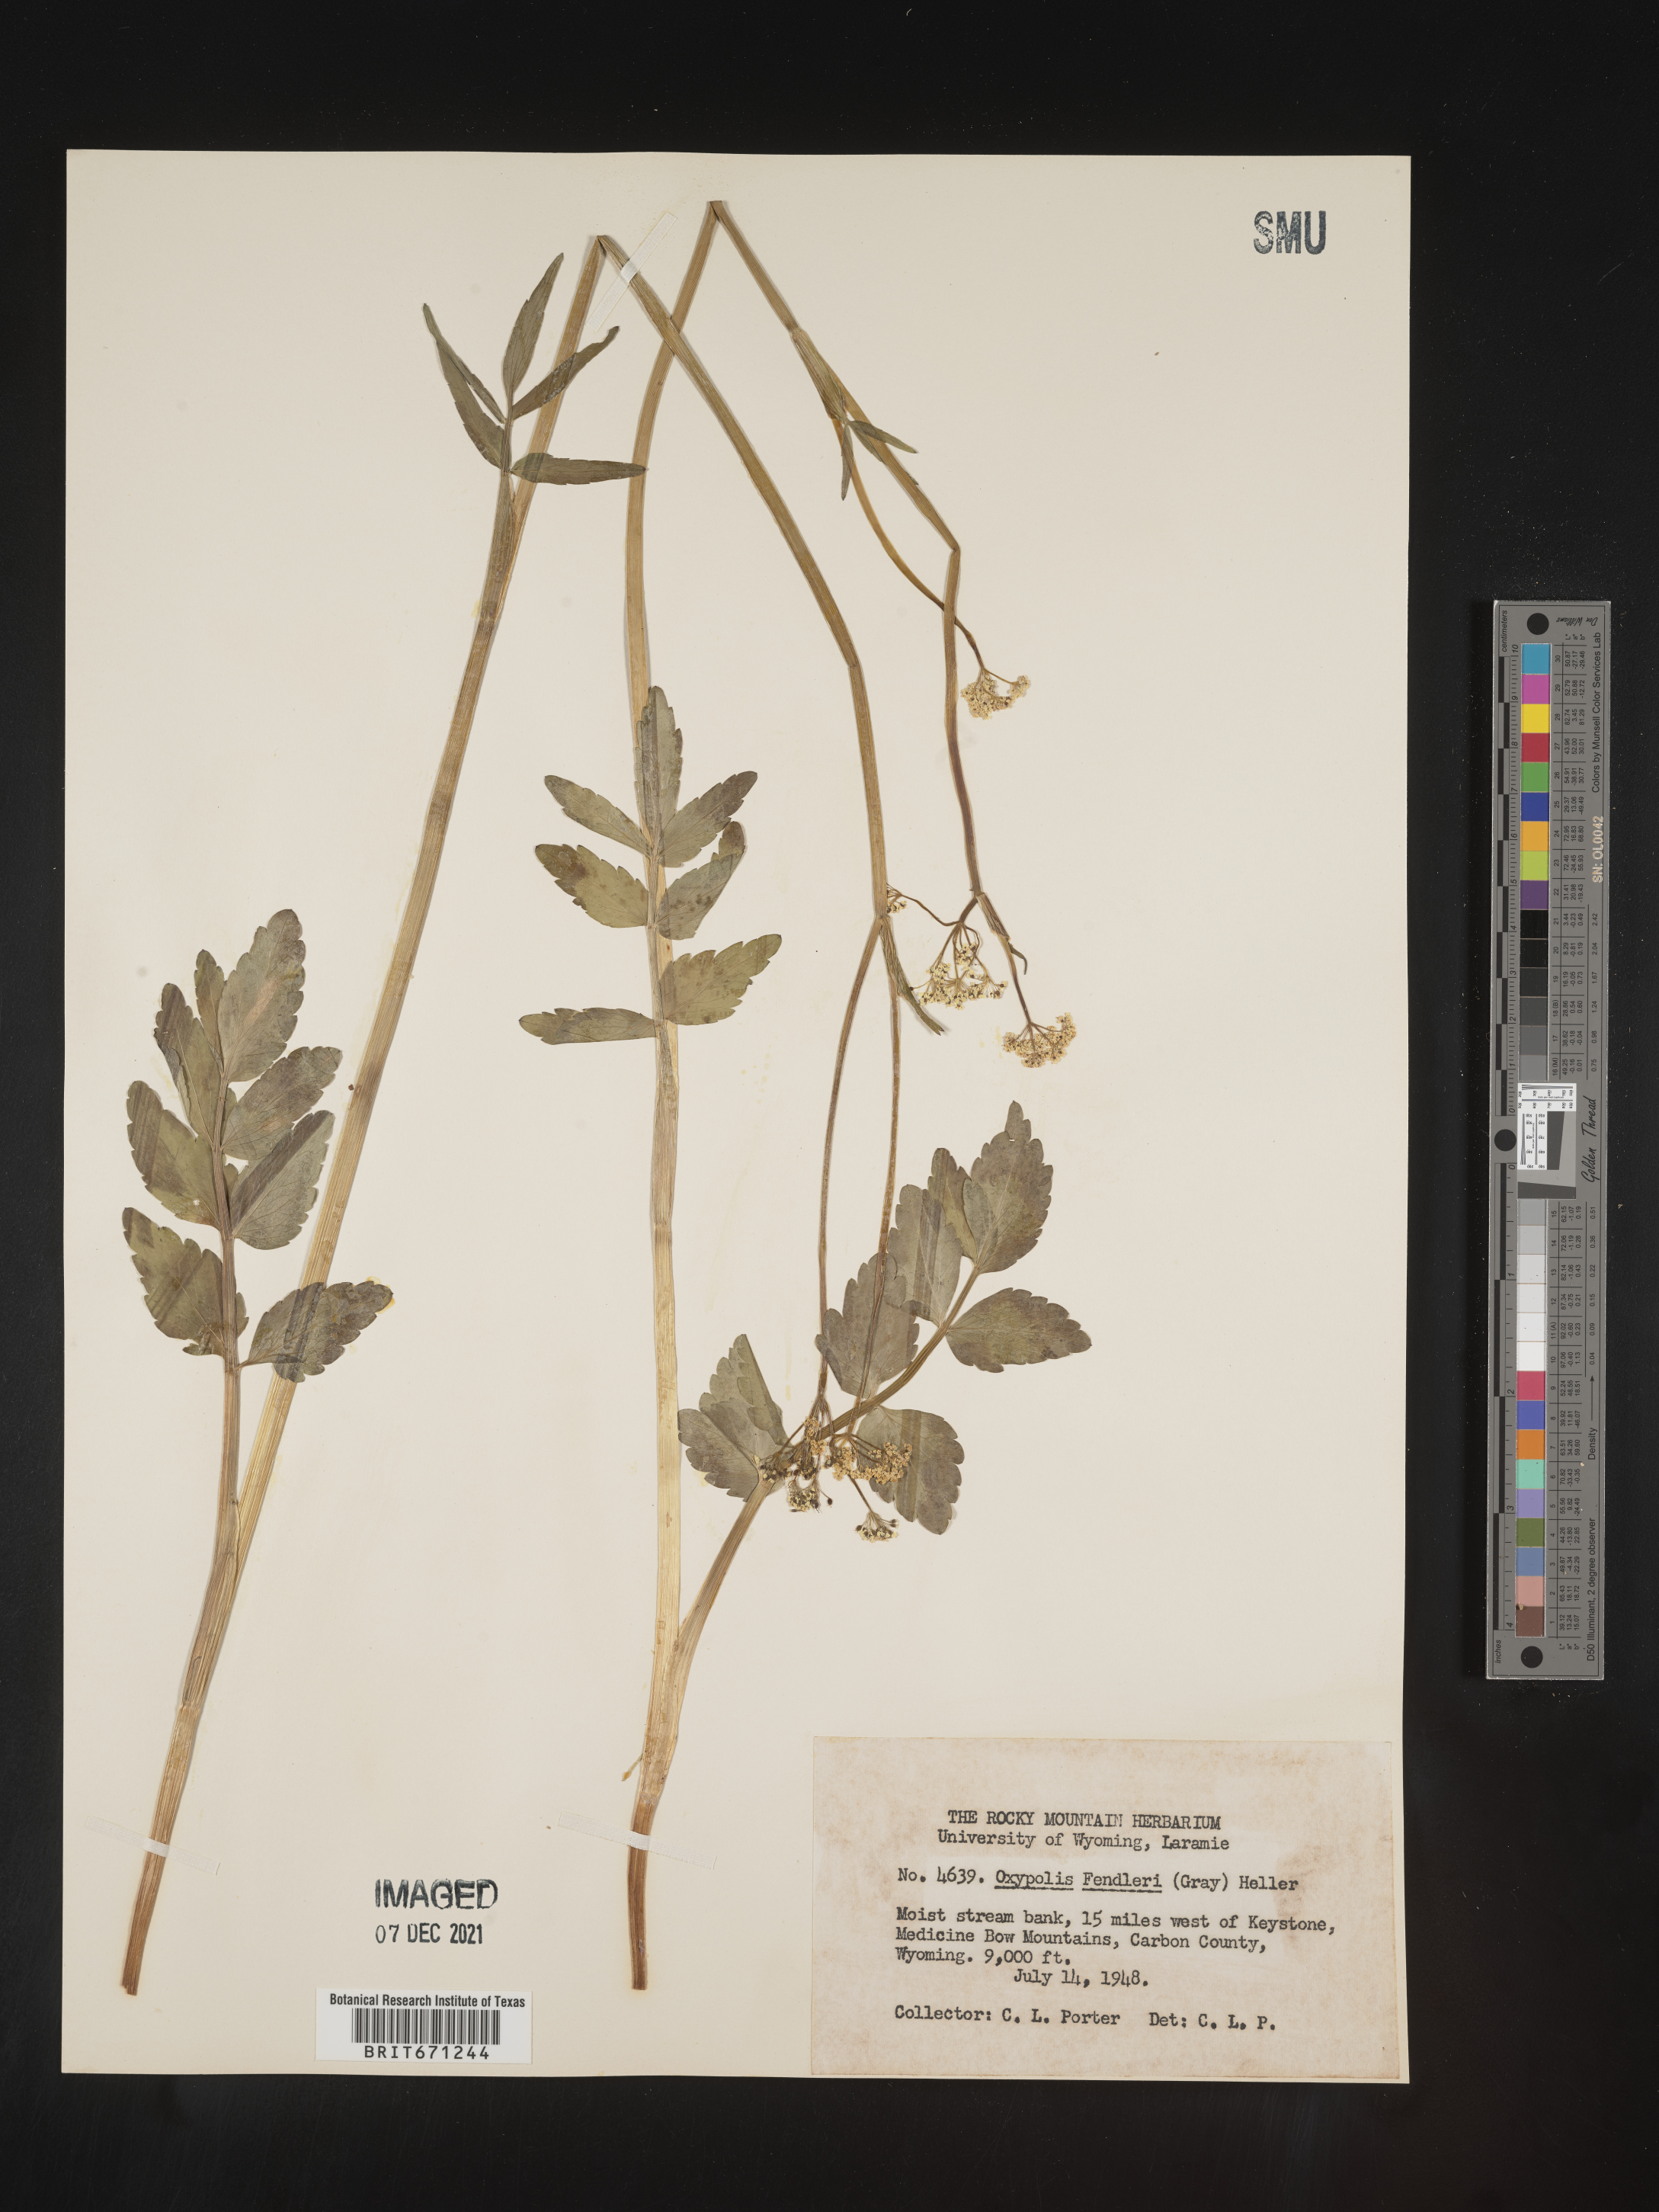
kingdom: Plantae
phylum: Tracheophyta
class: Magnoliopsida
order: Apiales
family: Apiaceae
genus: Oxypolis
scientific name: Oxypolis fendleri
